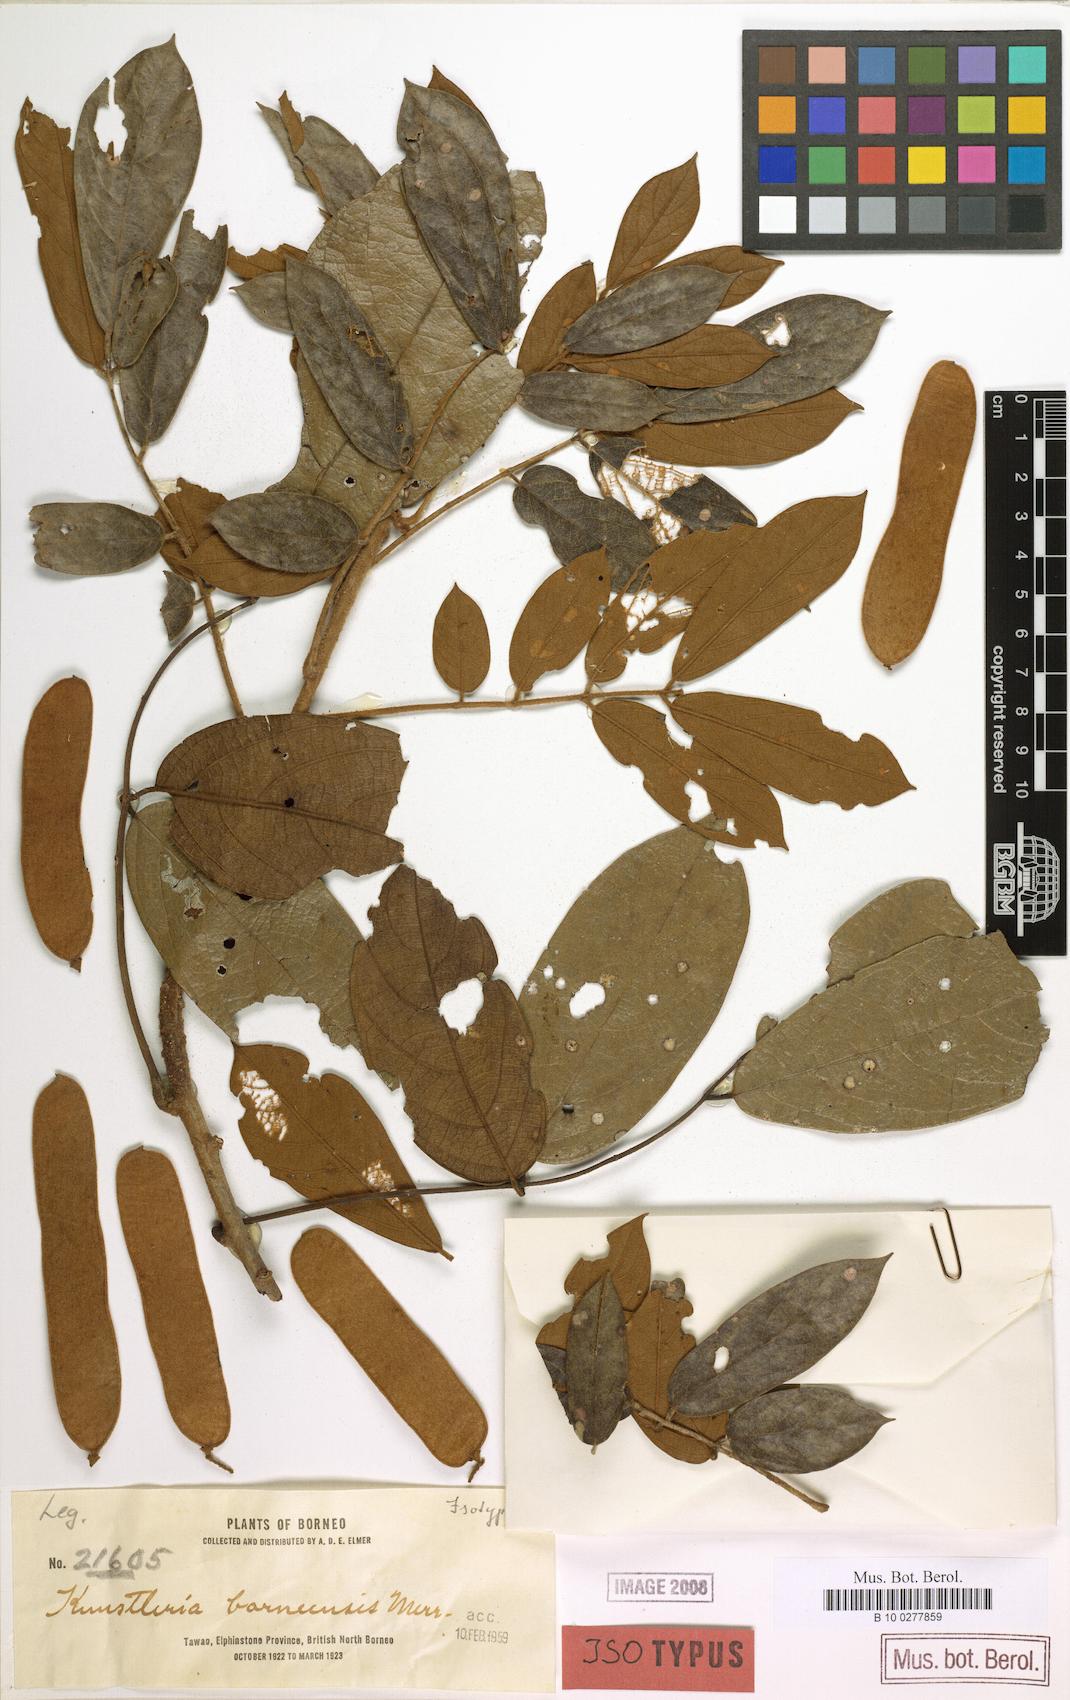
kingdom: Plantae
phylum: Tracheophyta
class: Magnoliopsida
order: Fabales
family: Fabaceae
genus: Kunstleria
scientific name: Kunstleria forbesii
